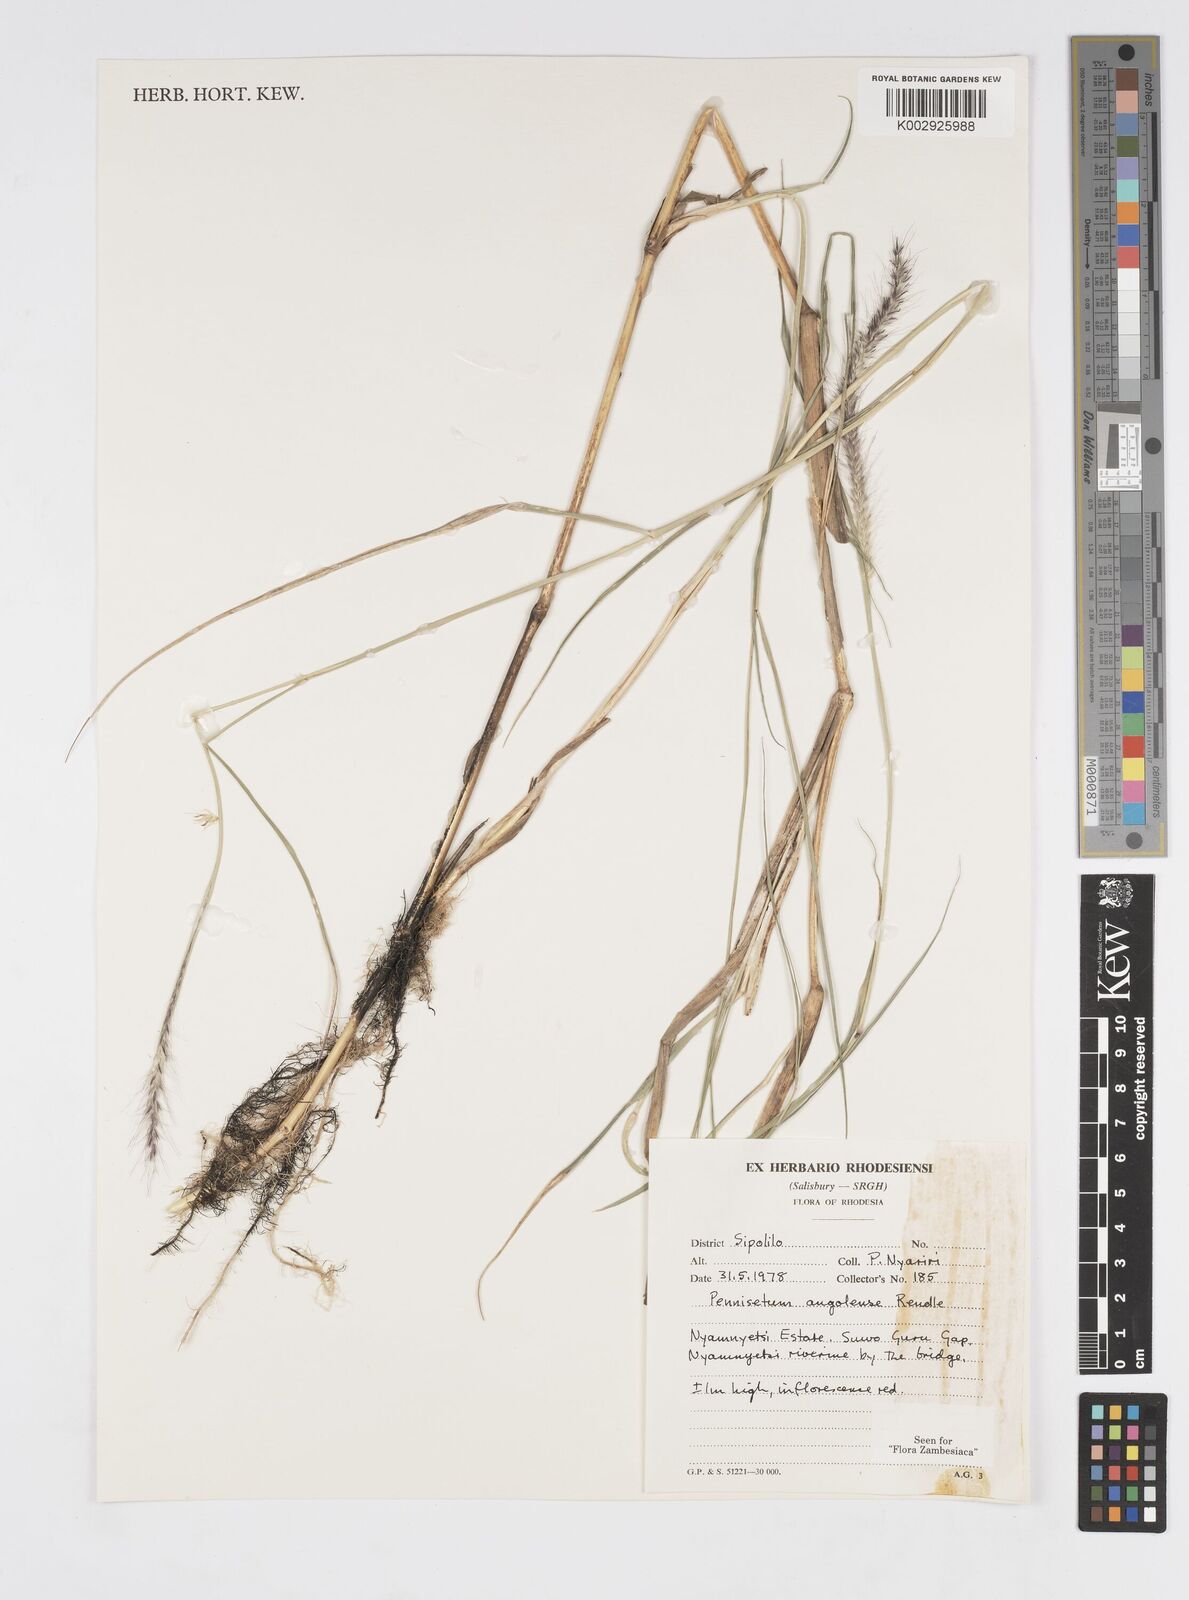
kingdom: Plantae
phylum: Tracheophyta
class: Liliopsida
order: Poales
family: Poaceae
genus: Cenchrus
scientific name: Cenchrus caudatus
